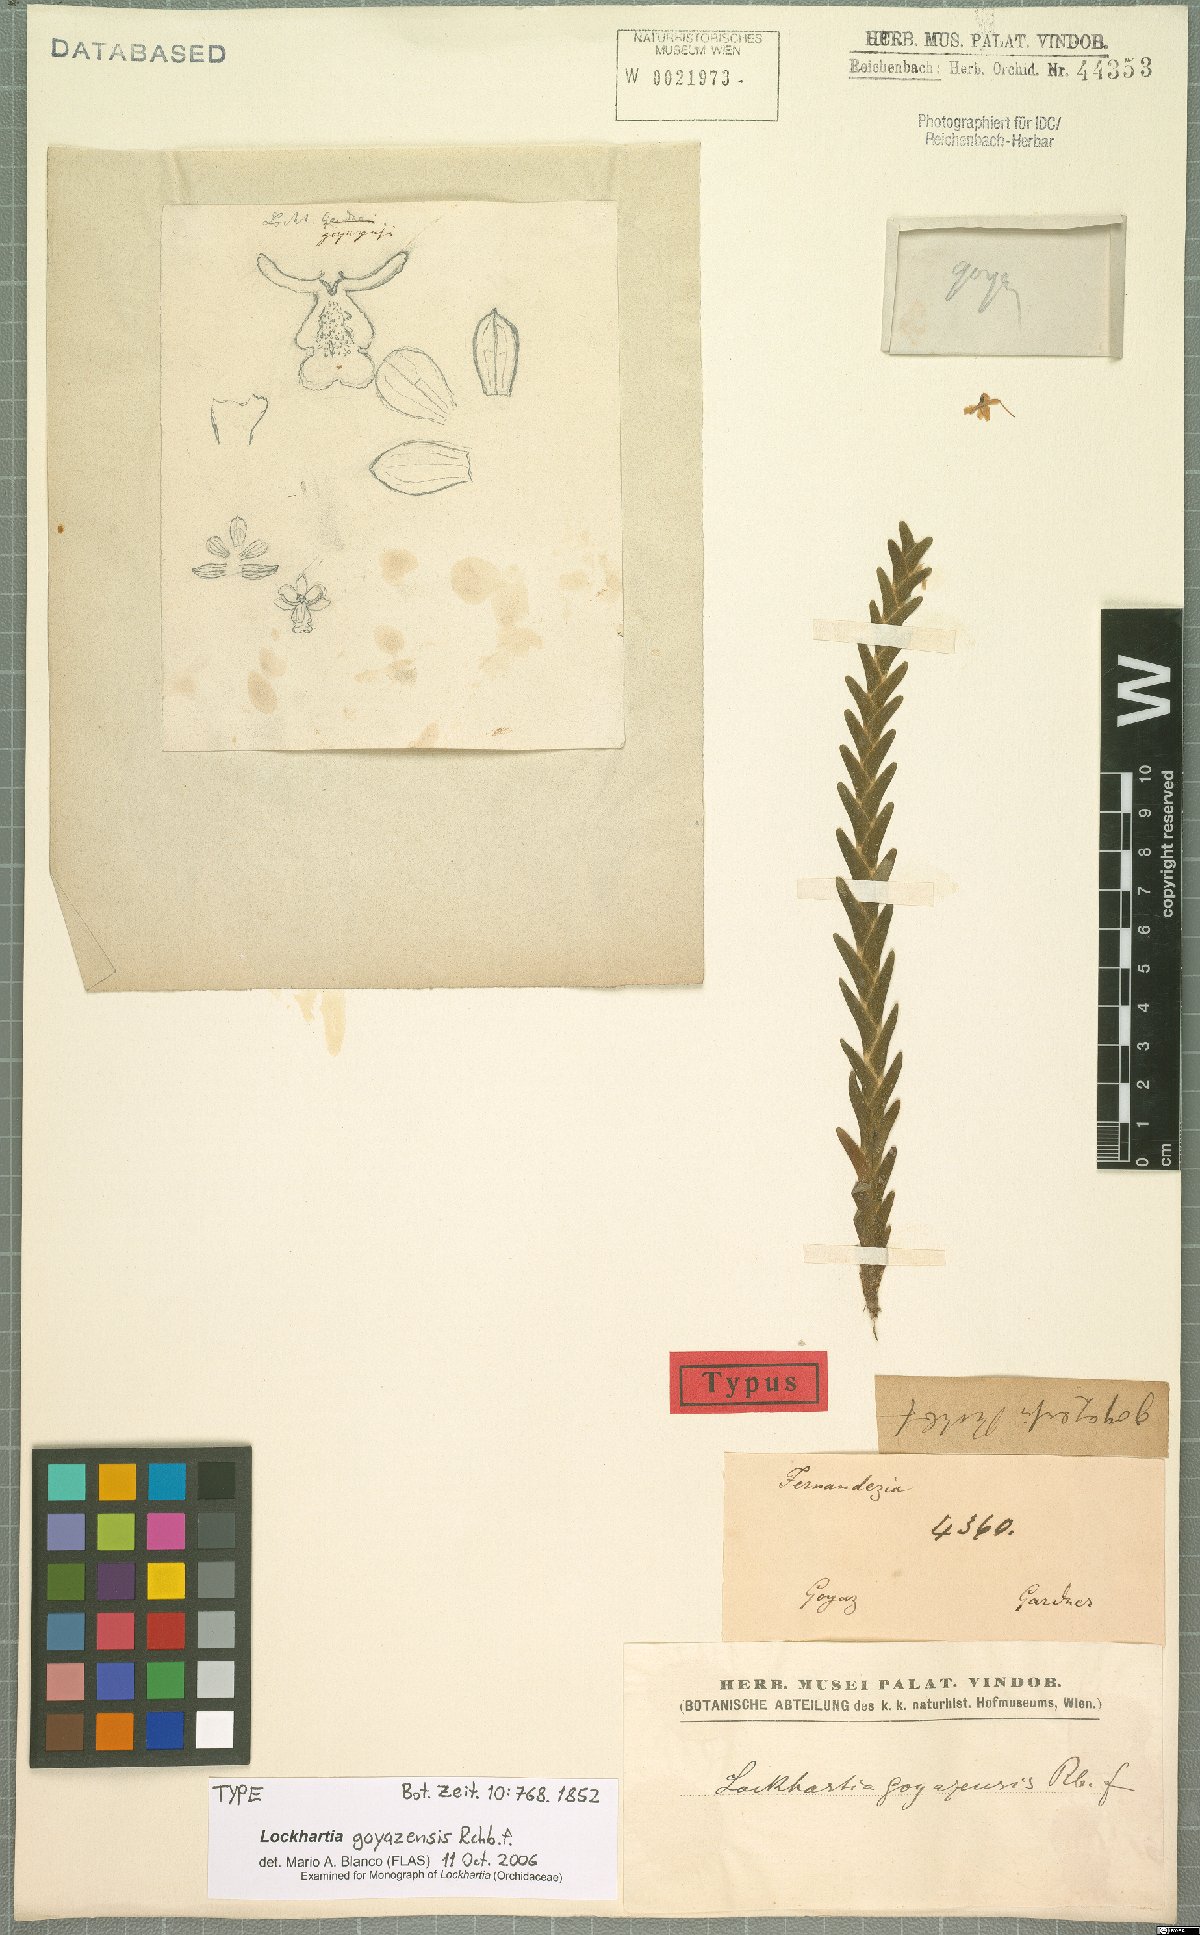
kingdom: Plantae
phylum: Tracheophyta
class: Liliopsida
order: Asparagales
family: Orchidaceae
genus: Lockhartia
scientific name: Lockhartia goyazensis
